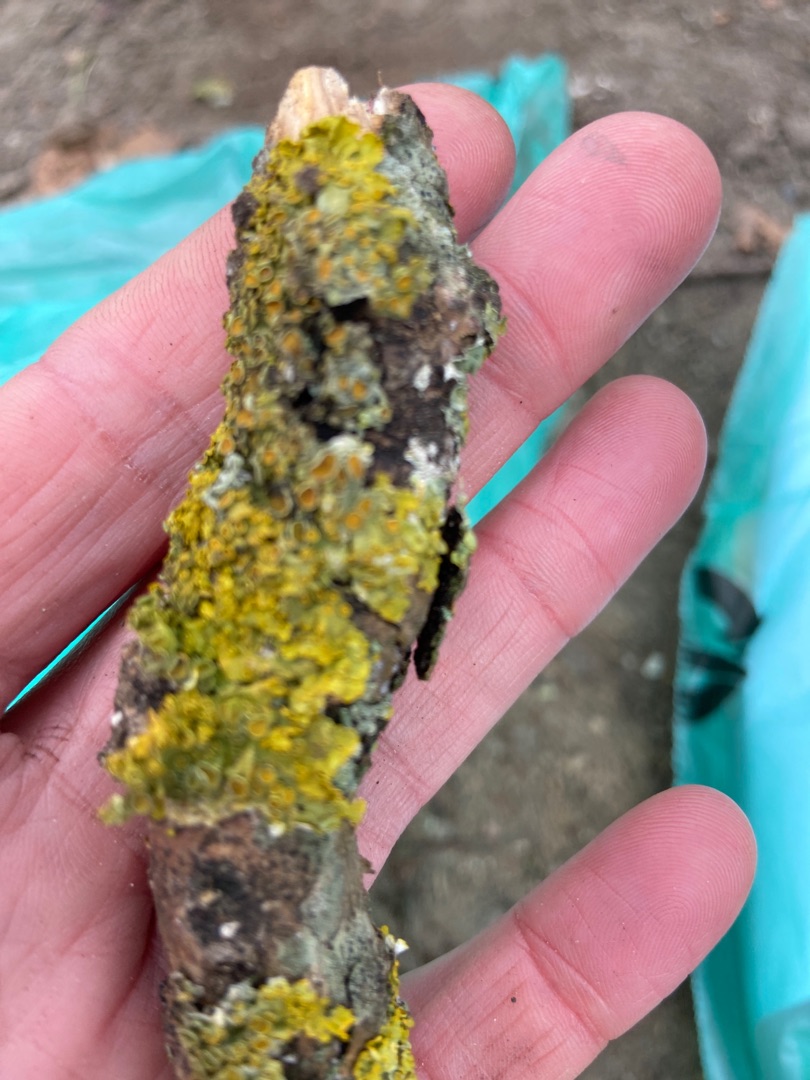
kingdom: Fungi
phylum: Ascomycota
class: Lecanoromycetes
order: Teloschistales
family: Teloschistaceae
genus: Xanthoria
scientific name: Xanthoria parietina
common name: Almindelig væggelav
